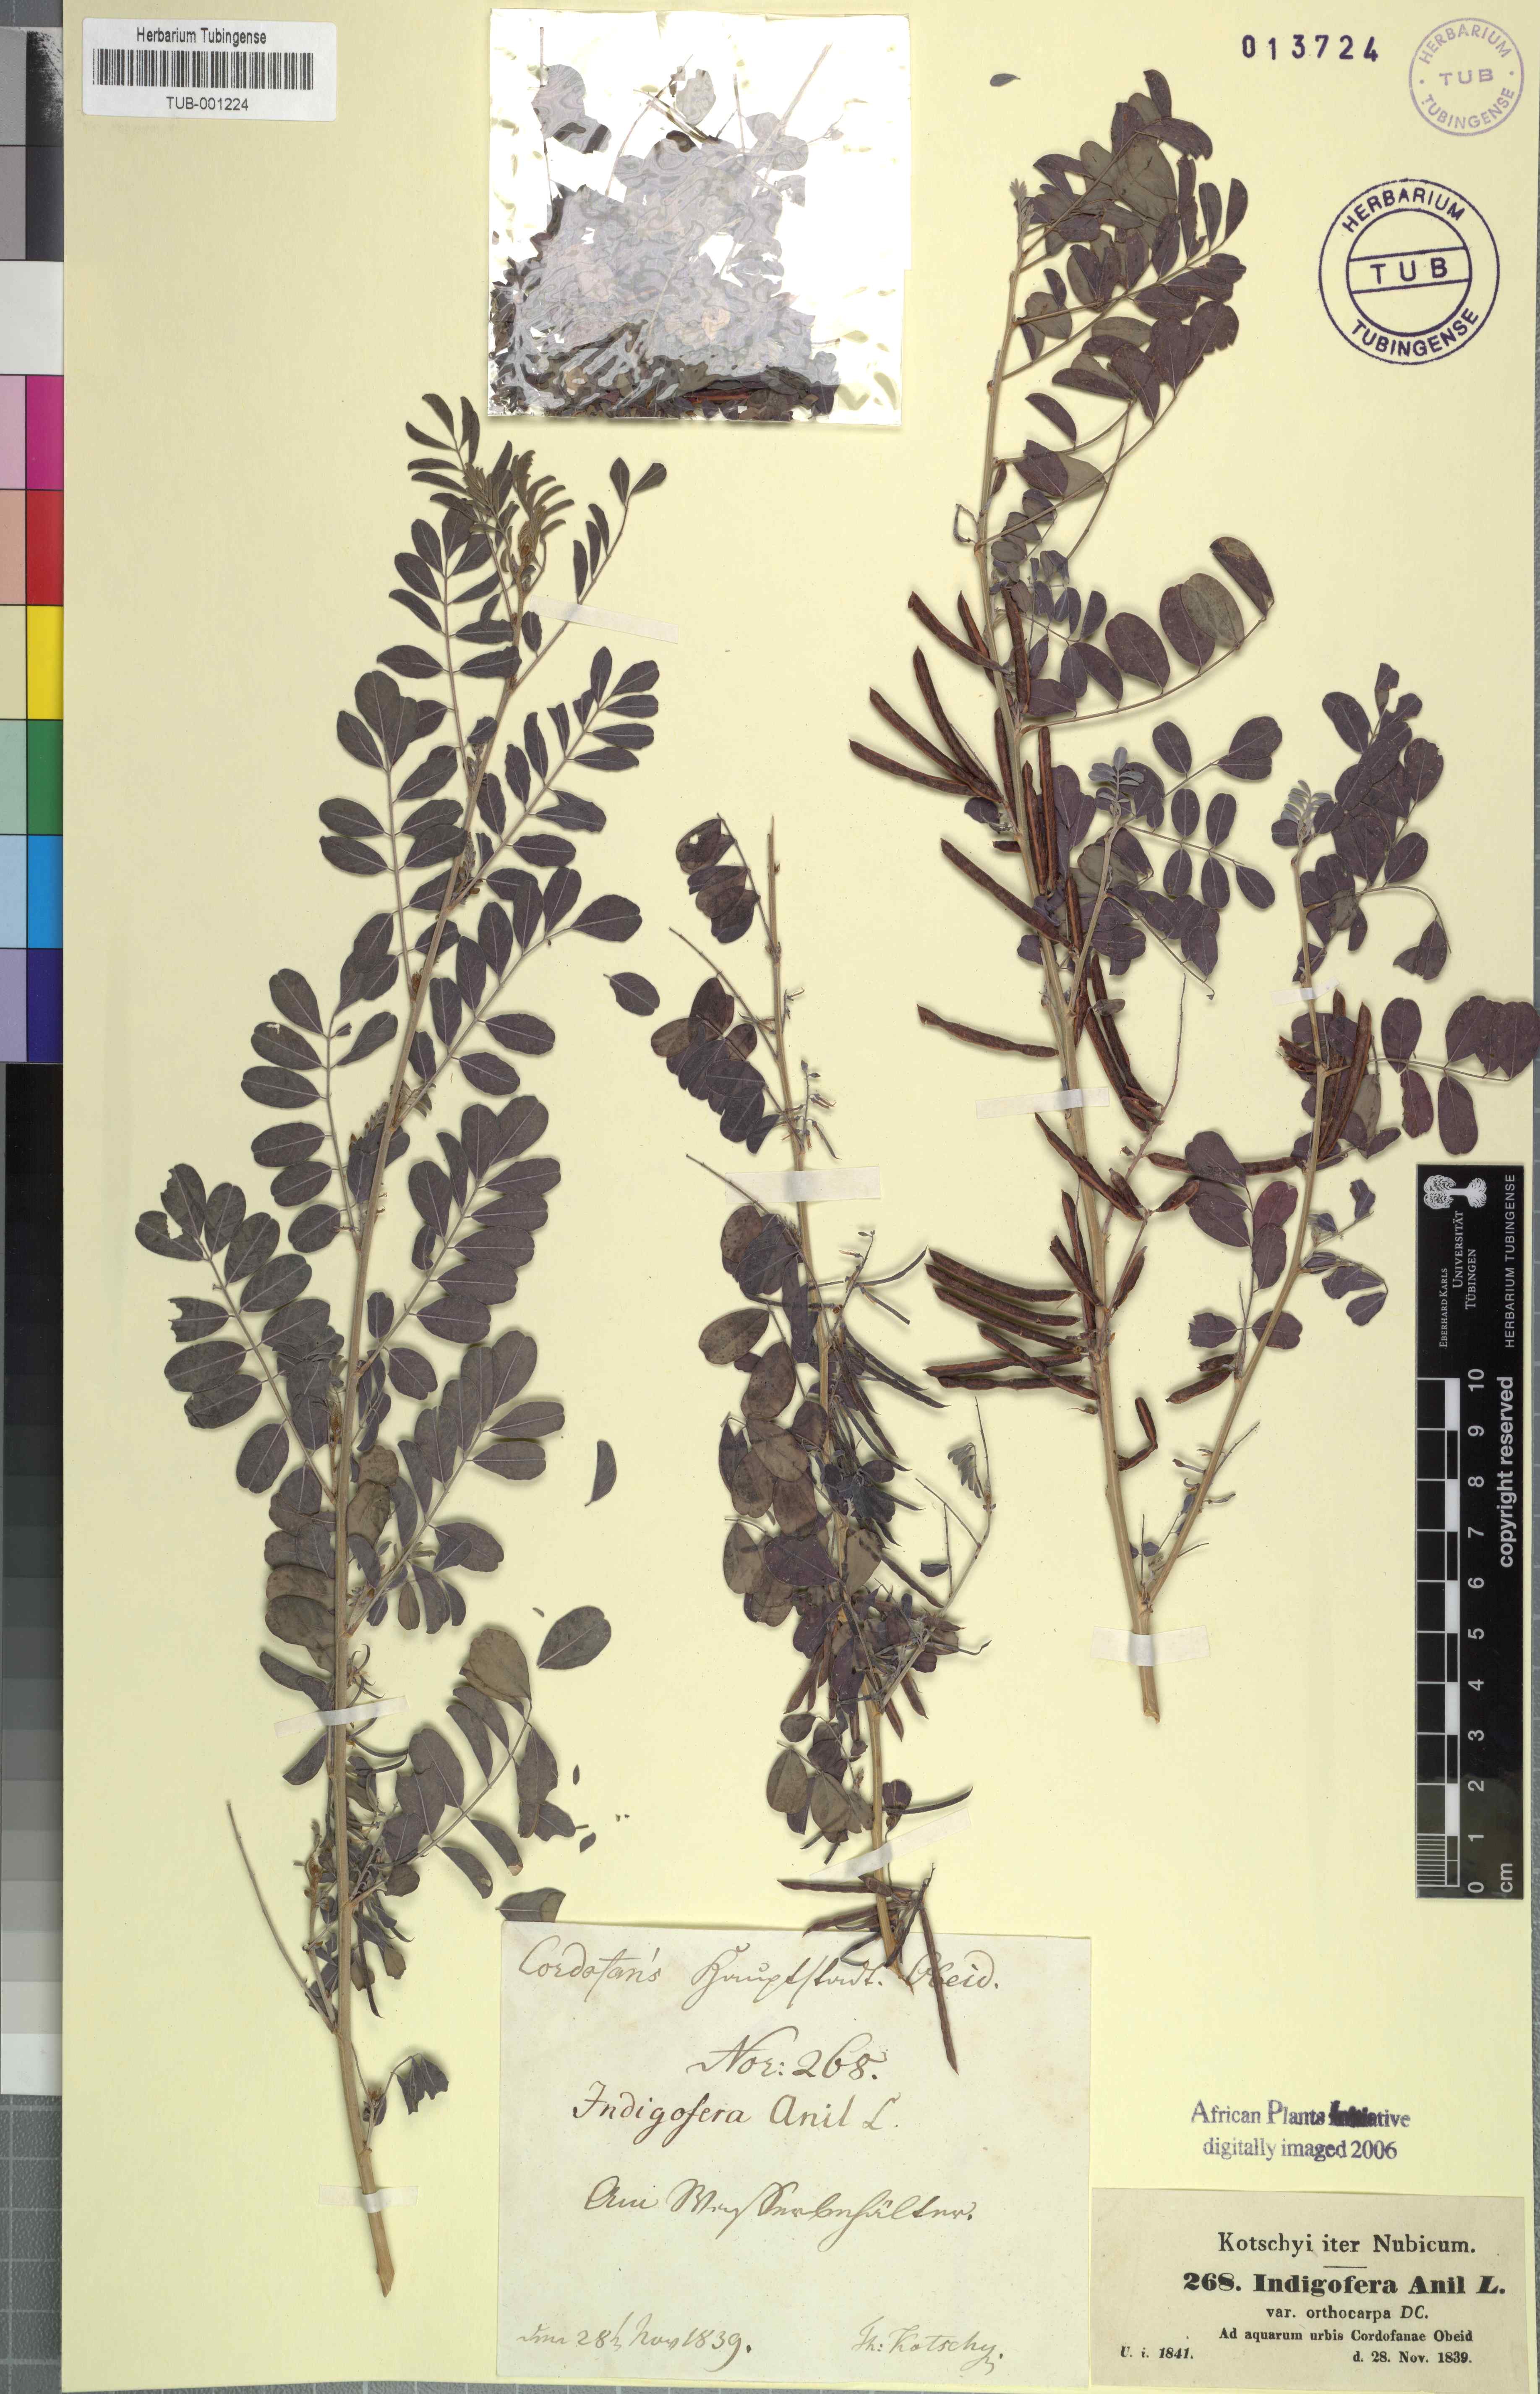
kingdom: Plantae
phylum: Tracheophyta
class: Magnoliopsida
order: Fabales
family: Fabaceae
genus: Indigofera
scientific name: Indigofera suffruticosa
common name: Anil de pasto
